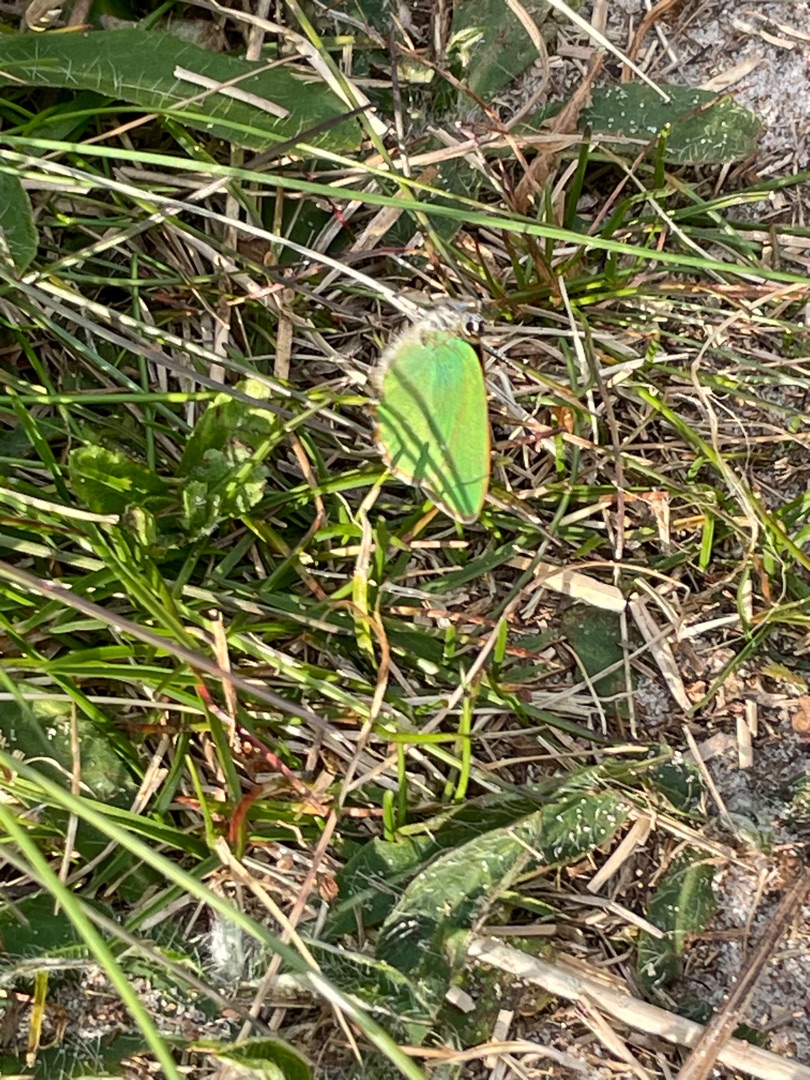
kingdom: Animalia
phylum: Arthropoda
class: Insecta
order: Lepidoptera
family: Lycaenidae
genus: Callophrys
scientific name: Callophrys rubi
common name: Grøn busksommerfugl
